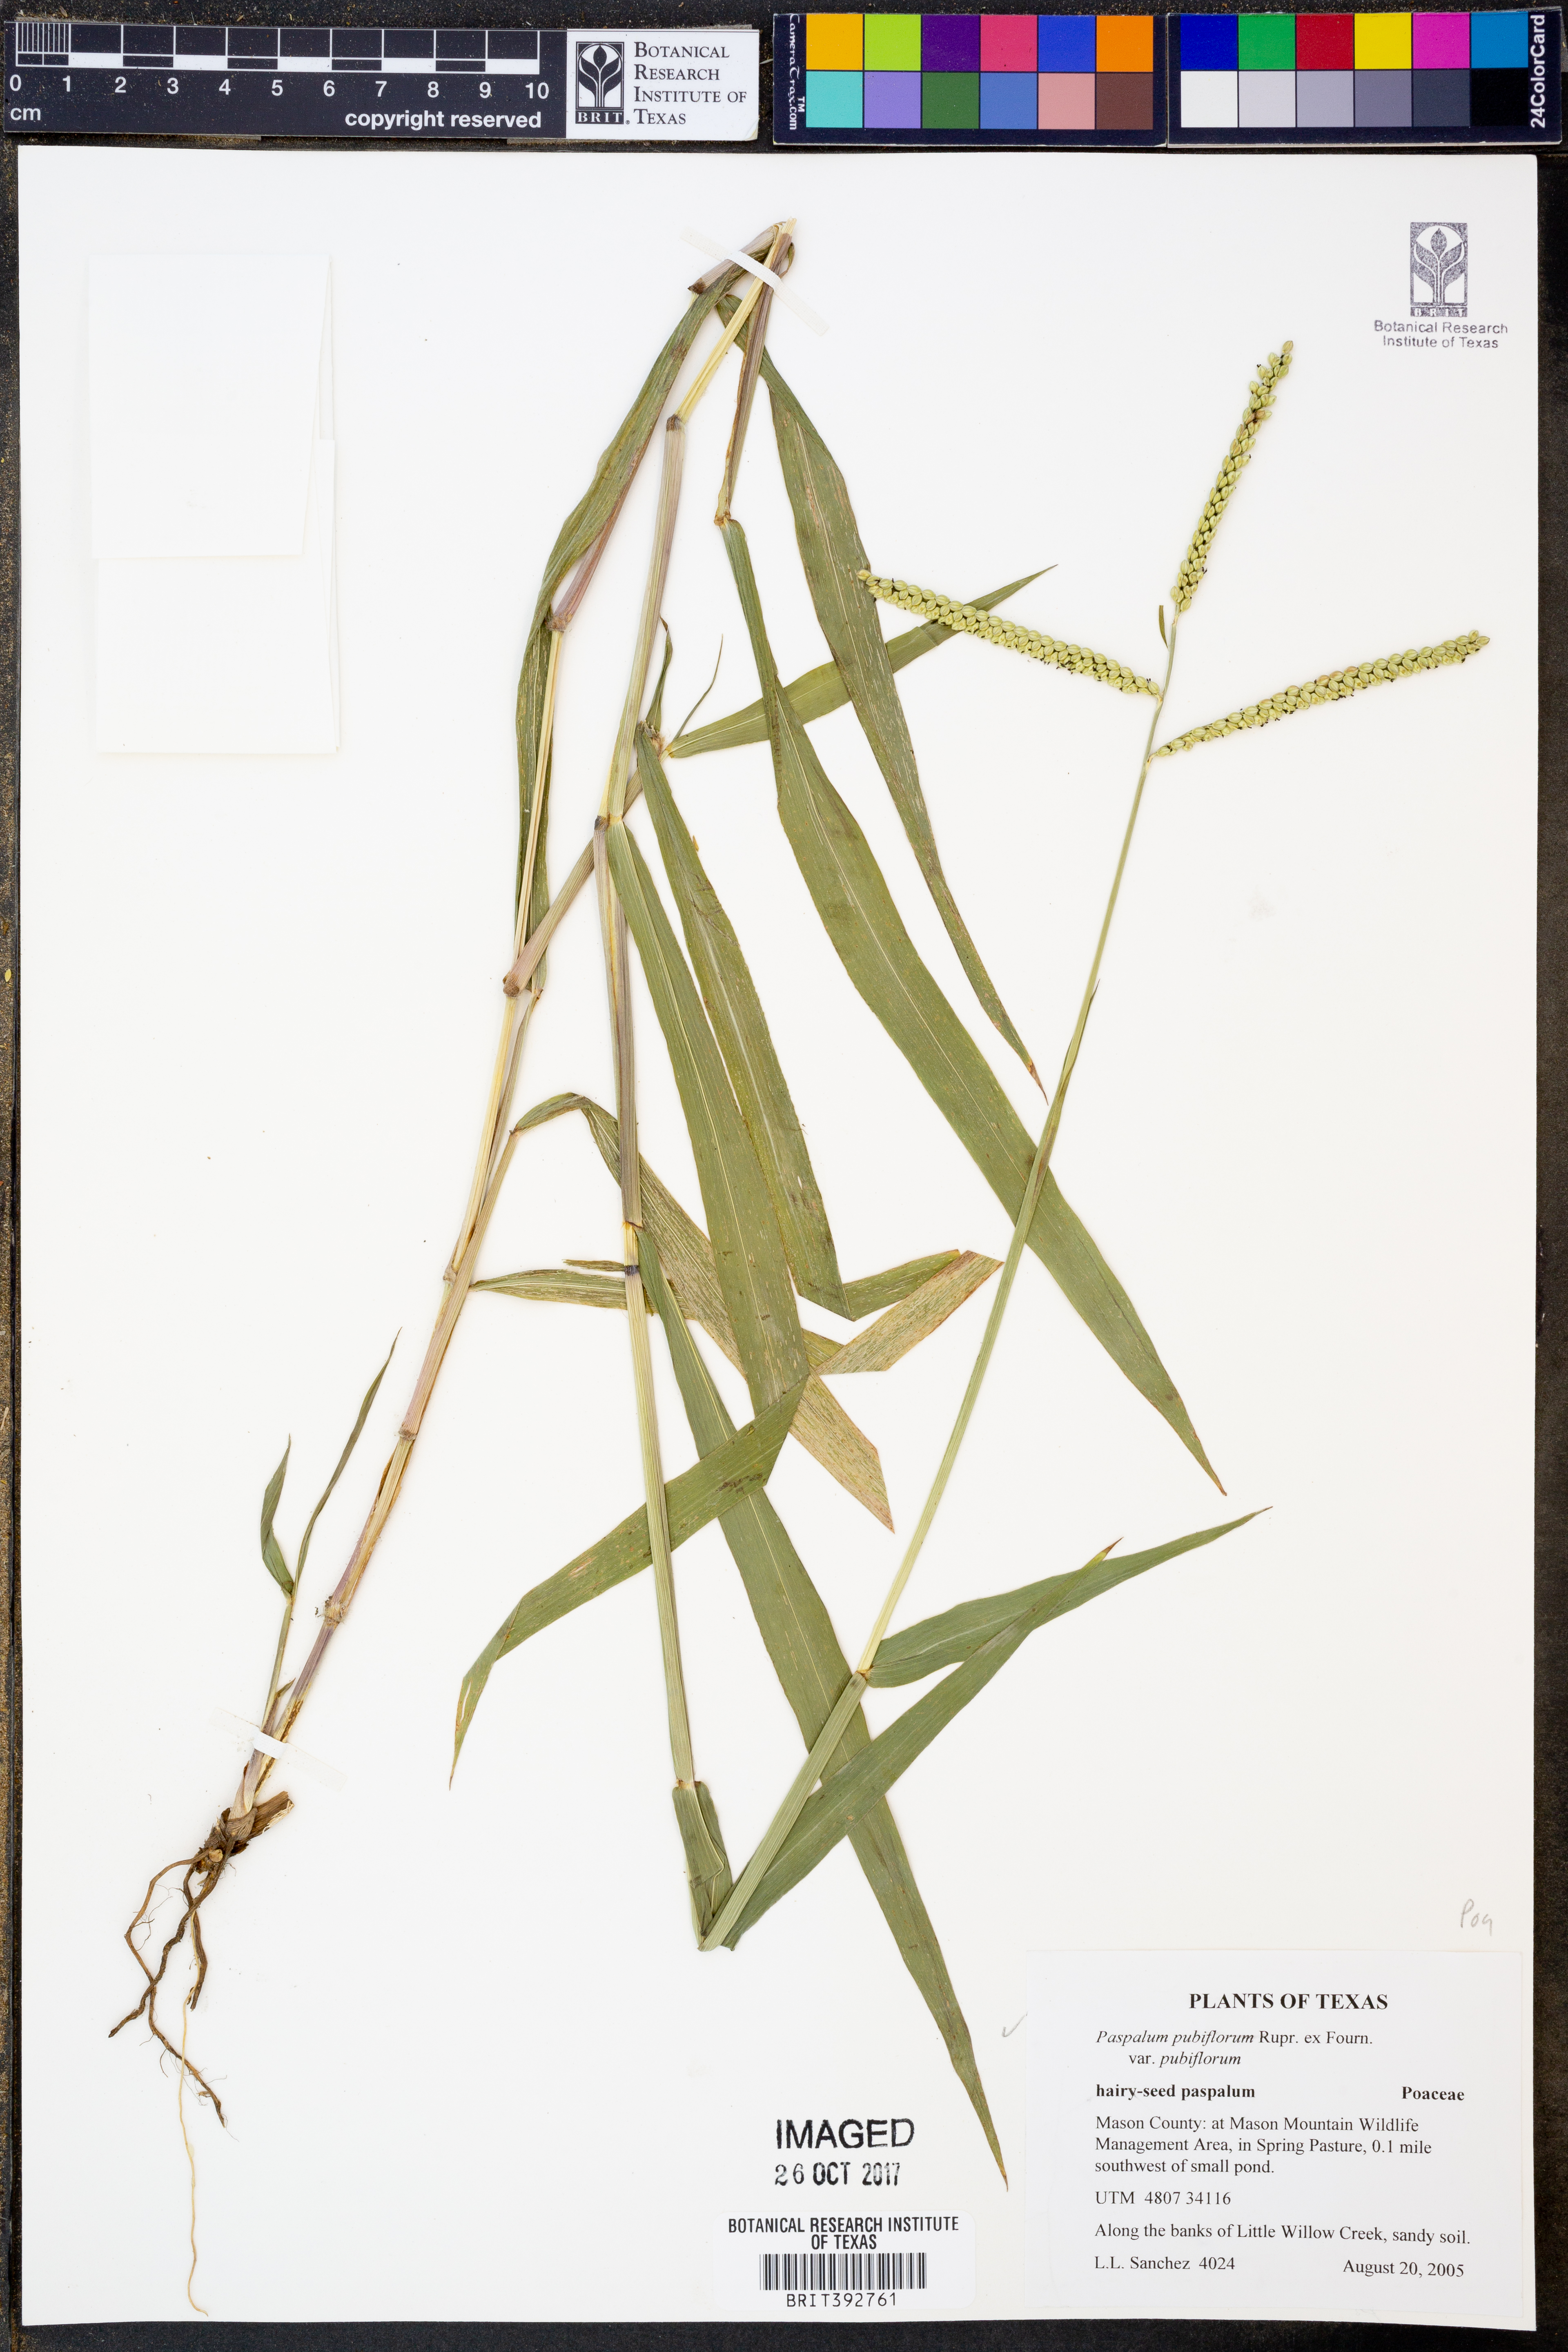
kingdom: Plantae
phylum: Tracheophyta
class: Liliopsida
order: Poales
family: Poaceae
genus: Paspalum
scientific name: Paspalum pubiflorum
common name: Hairy-seed paspalum
